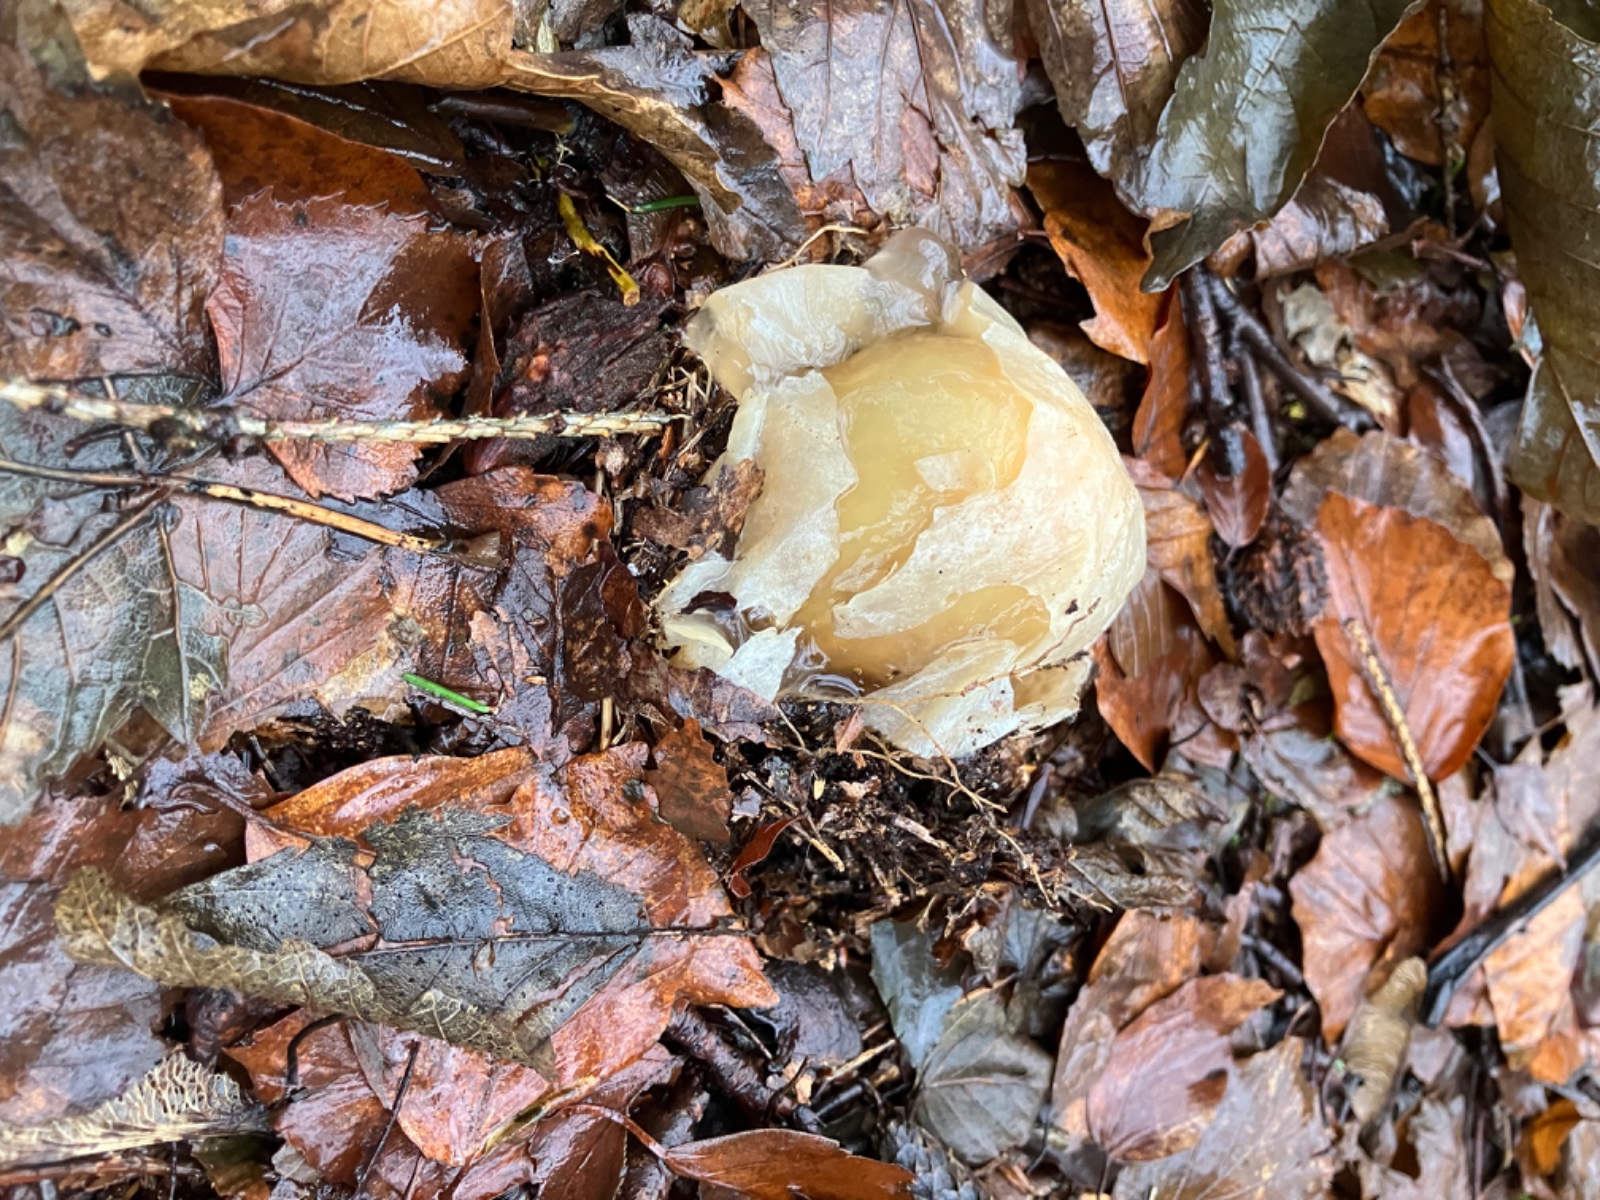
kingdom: Fungi
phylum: Basidiomycota
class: Agaricomycetes
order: Phallales
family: Phallaceae
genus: Phallus
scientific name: Phallus impudicus
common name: almindelig stinksvamp
